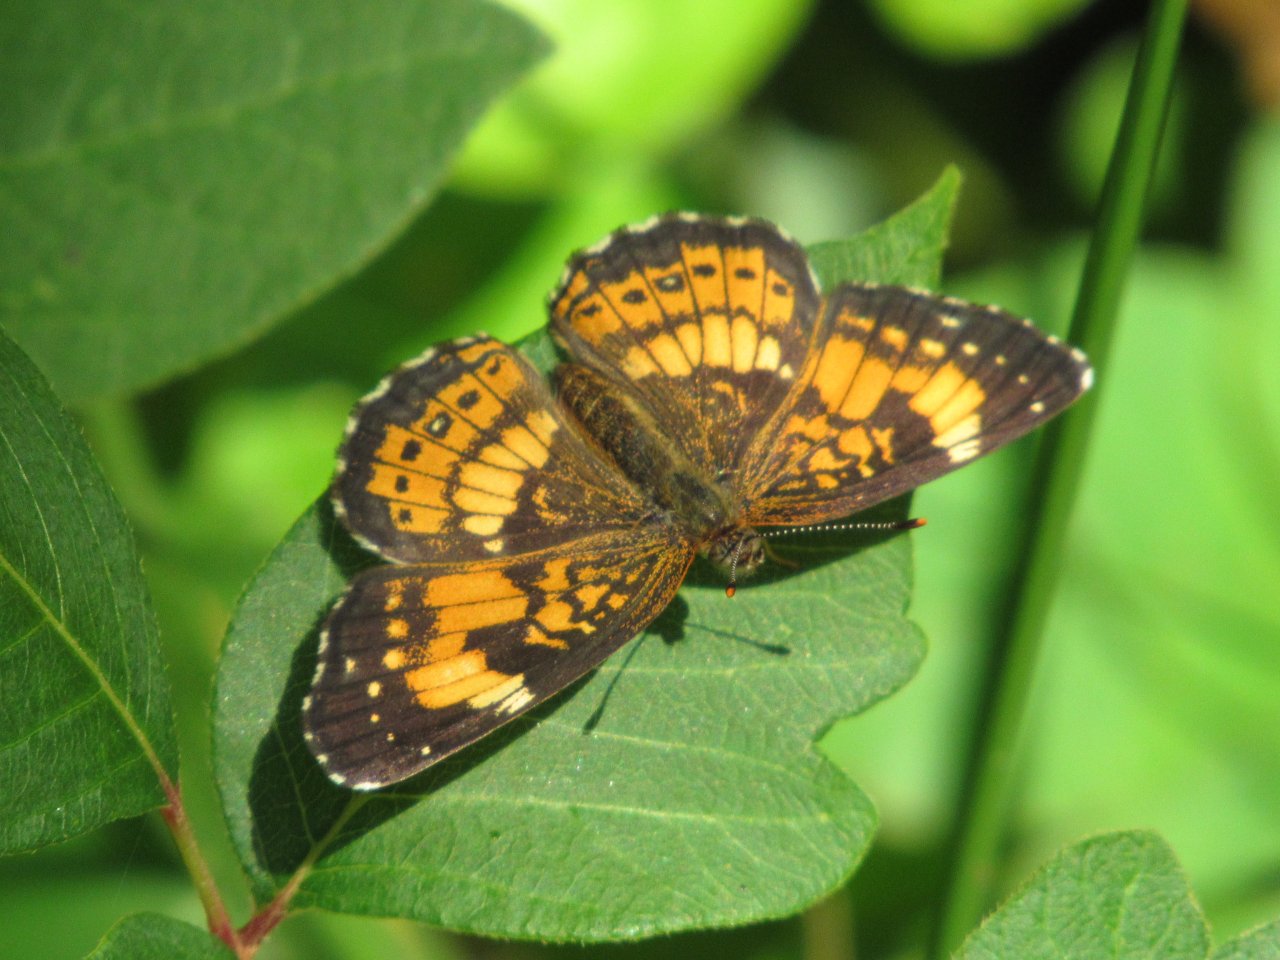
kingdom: Animalia
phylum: Arthropoda
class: Insecta
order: Lepidoptera
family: Nymphalidae
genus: Chlosyne
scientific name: Chlosyne nycteis
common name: Silvery Checkerspot
